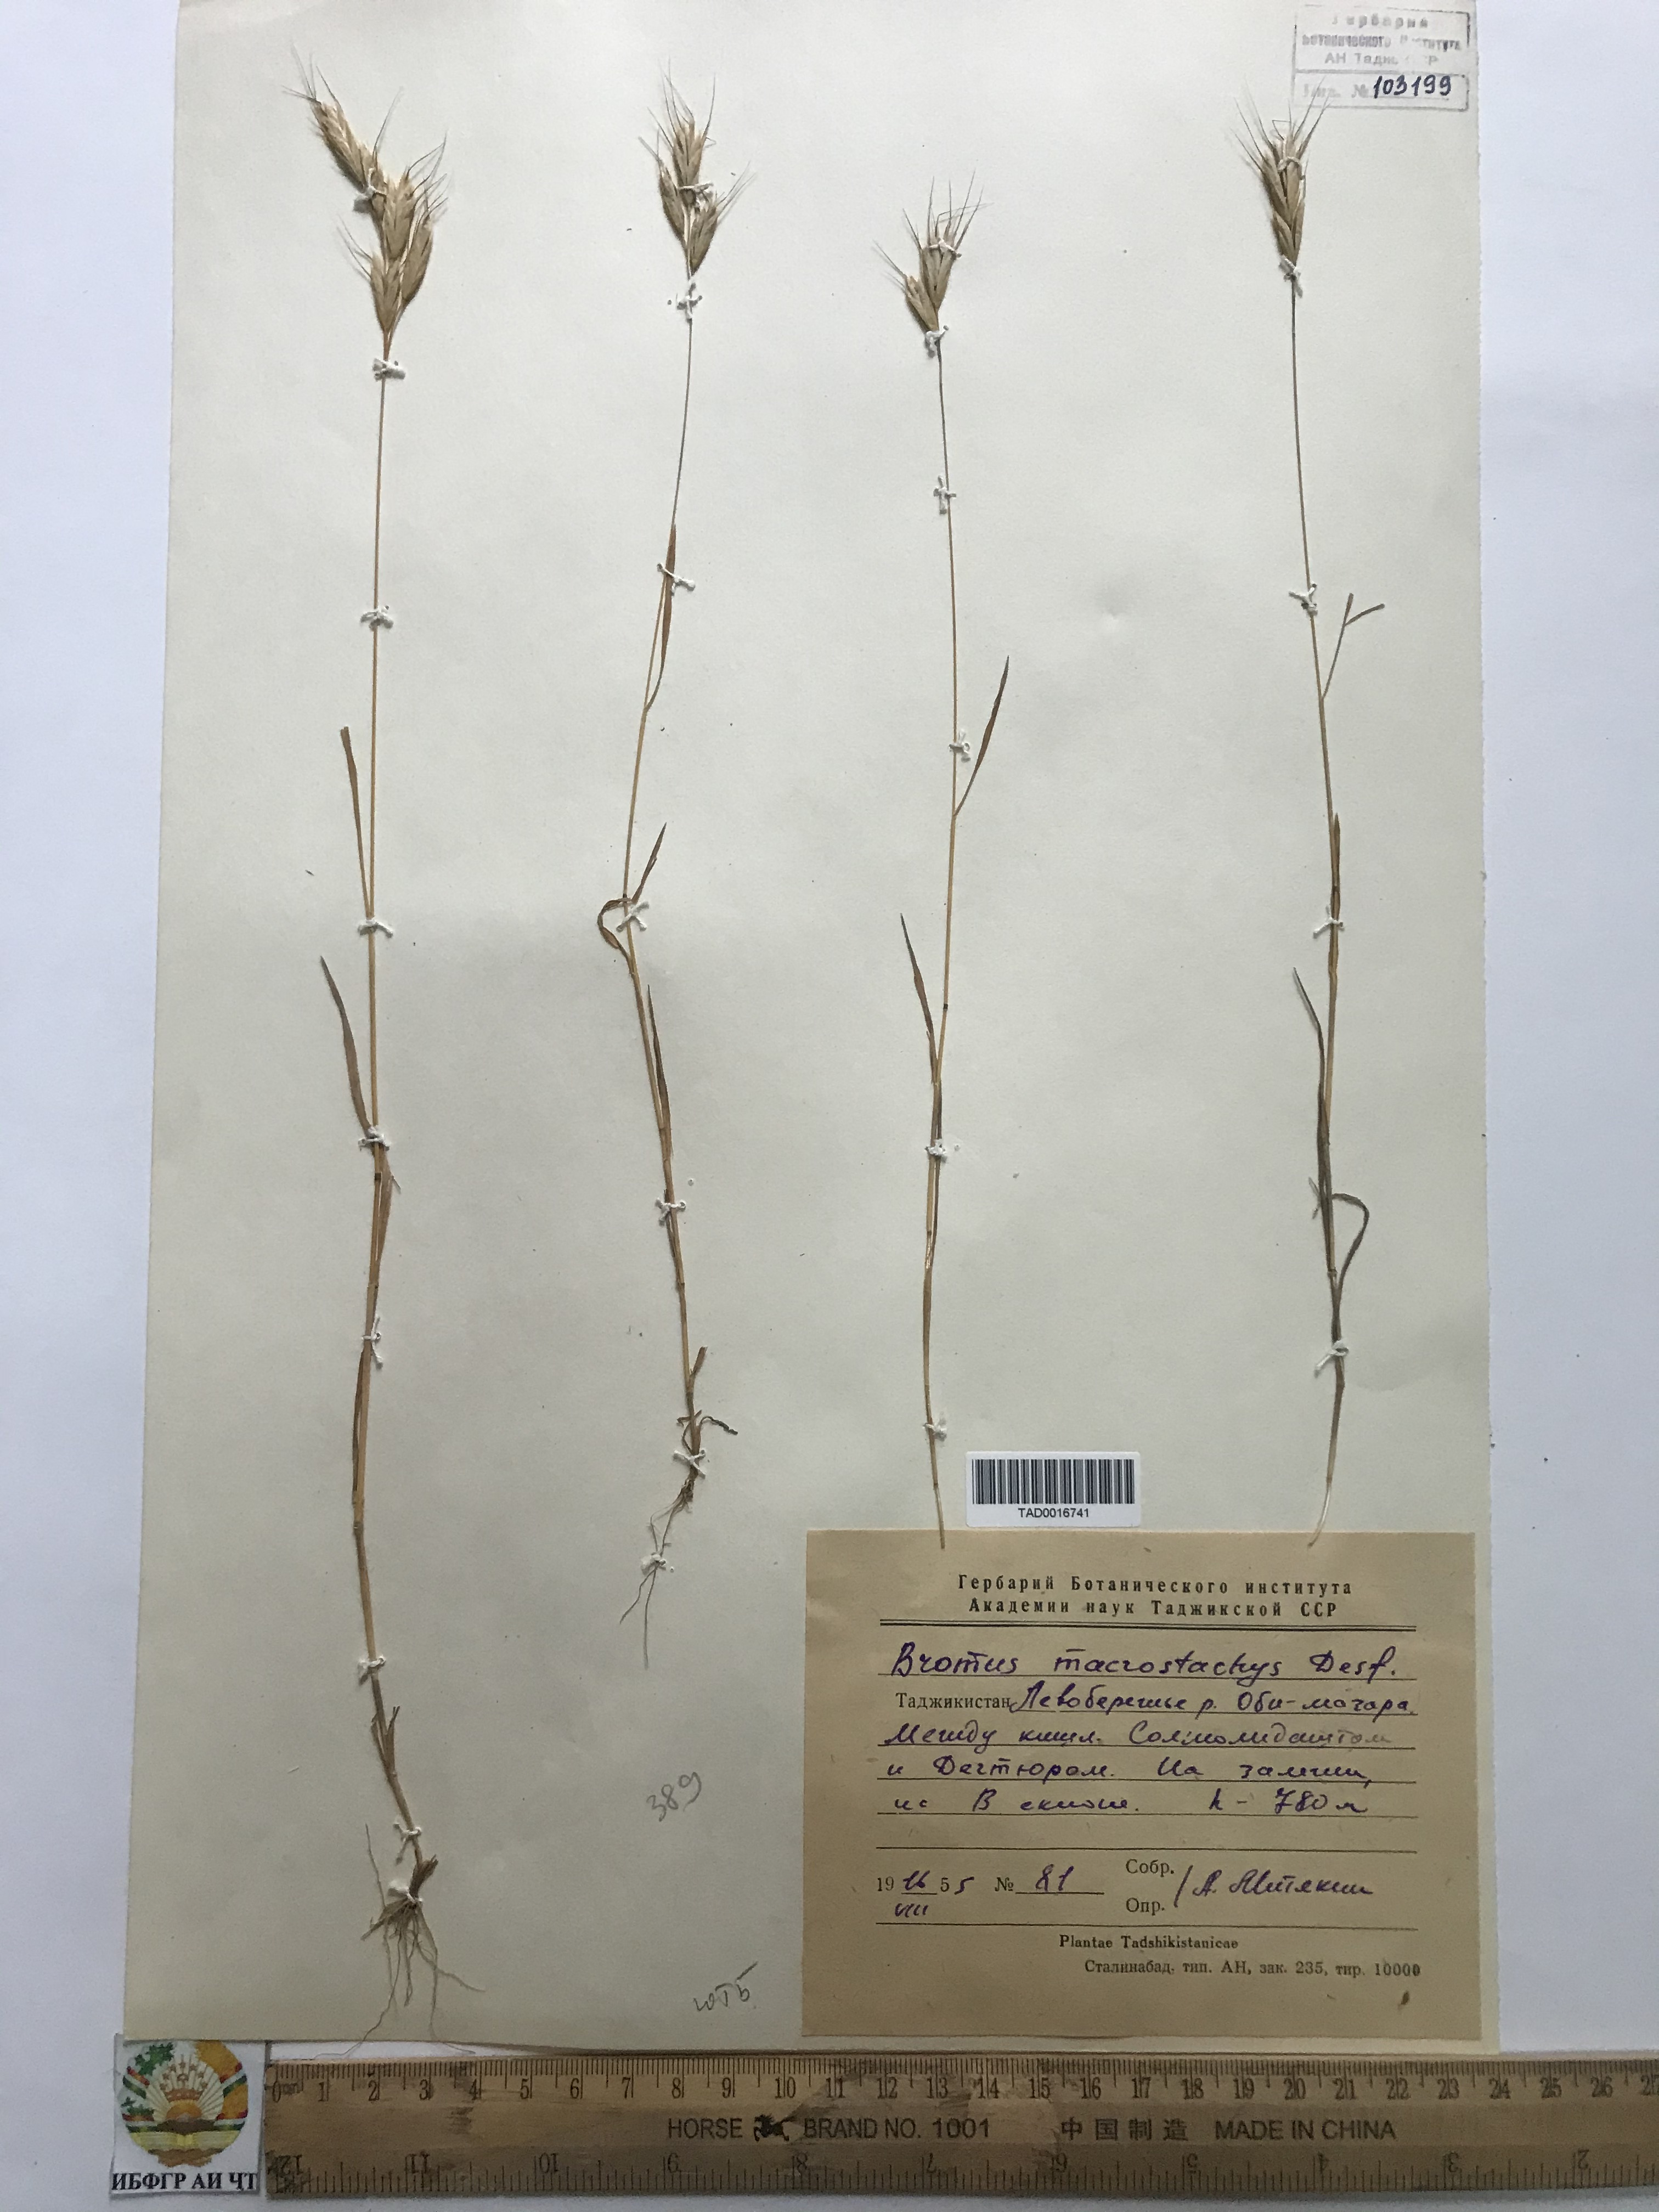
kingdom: Plantae
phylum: Tracheophyta
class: Liliopsida
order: Poales
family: Poaceae
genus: Bromus
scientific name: Bromus lanceolatus
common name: Mediterranean brome
